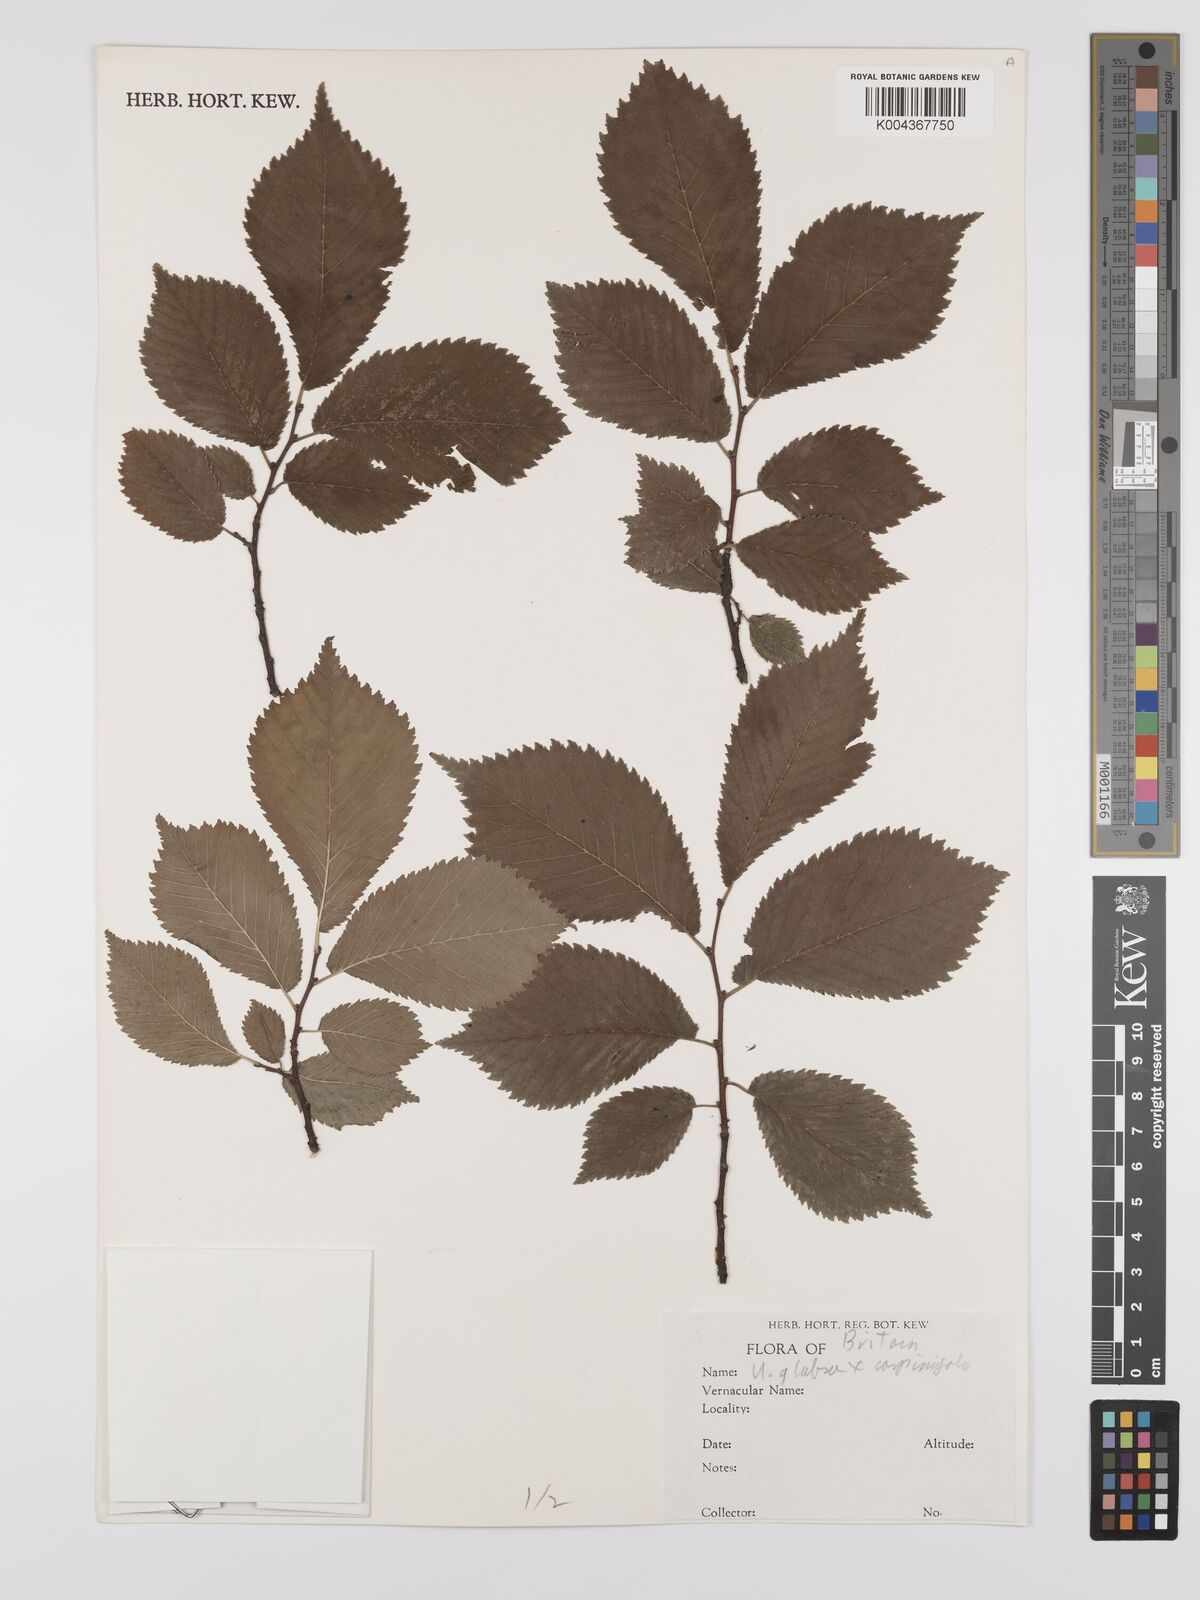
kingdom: Plantae
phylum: Tracheophyta
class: Magnoliopsida
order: Rosales
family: Ulmaceae
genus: Ulmus
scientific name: Ulmus minor
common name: Small-leaved elm
